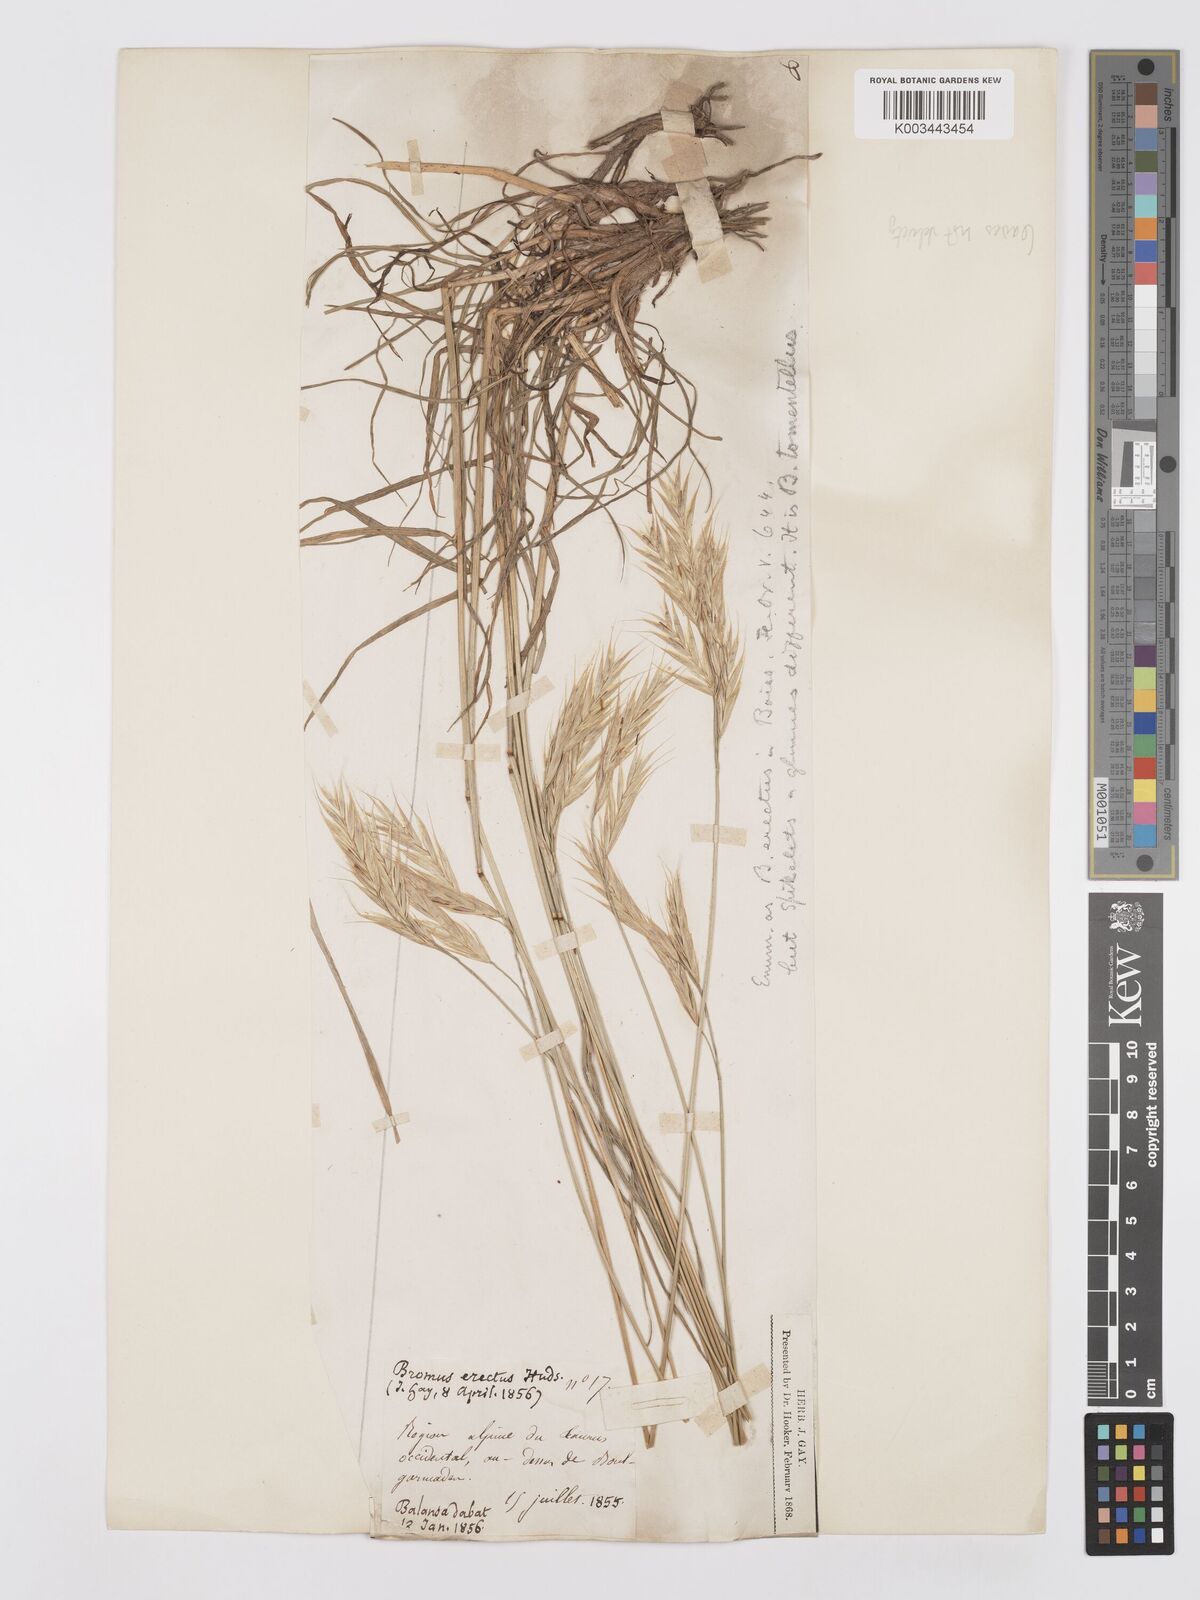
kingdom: Plantae
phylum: Tracheophyta
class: Liliopsida
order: Poales
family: Poaceae
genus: Bromus
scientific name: Bromus tomentellus
